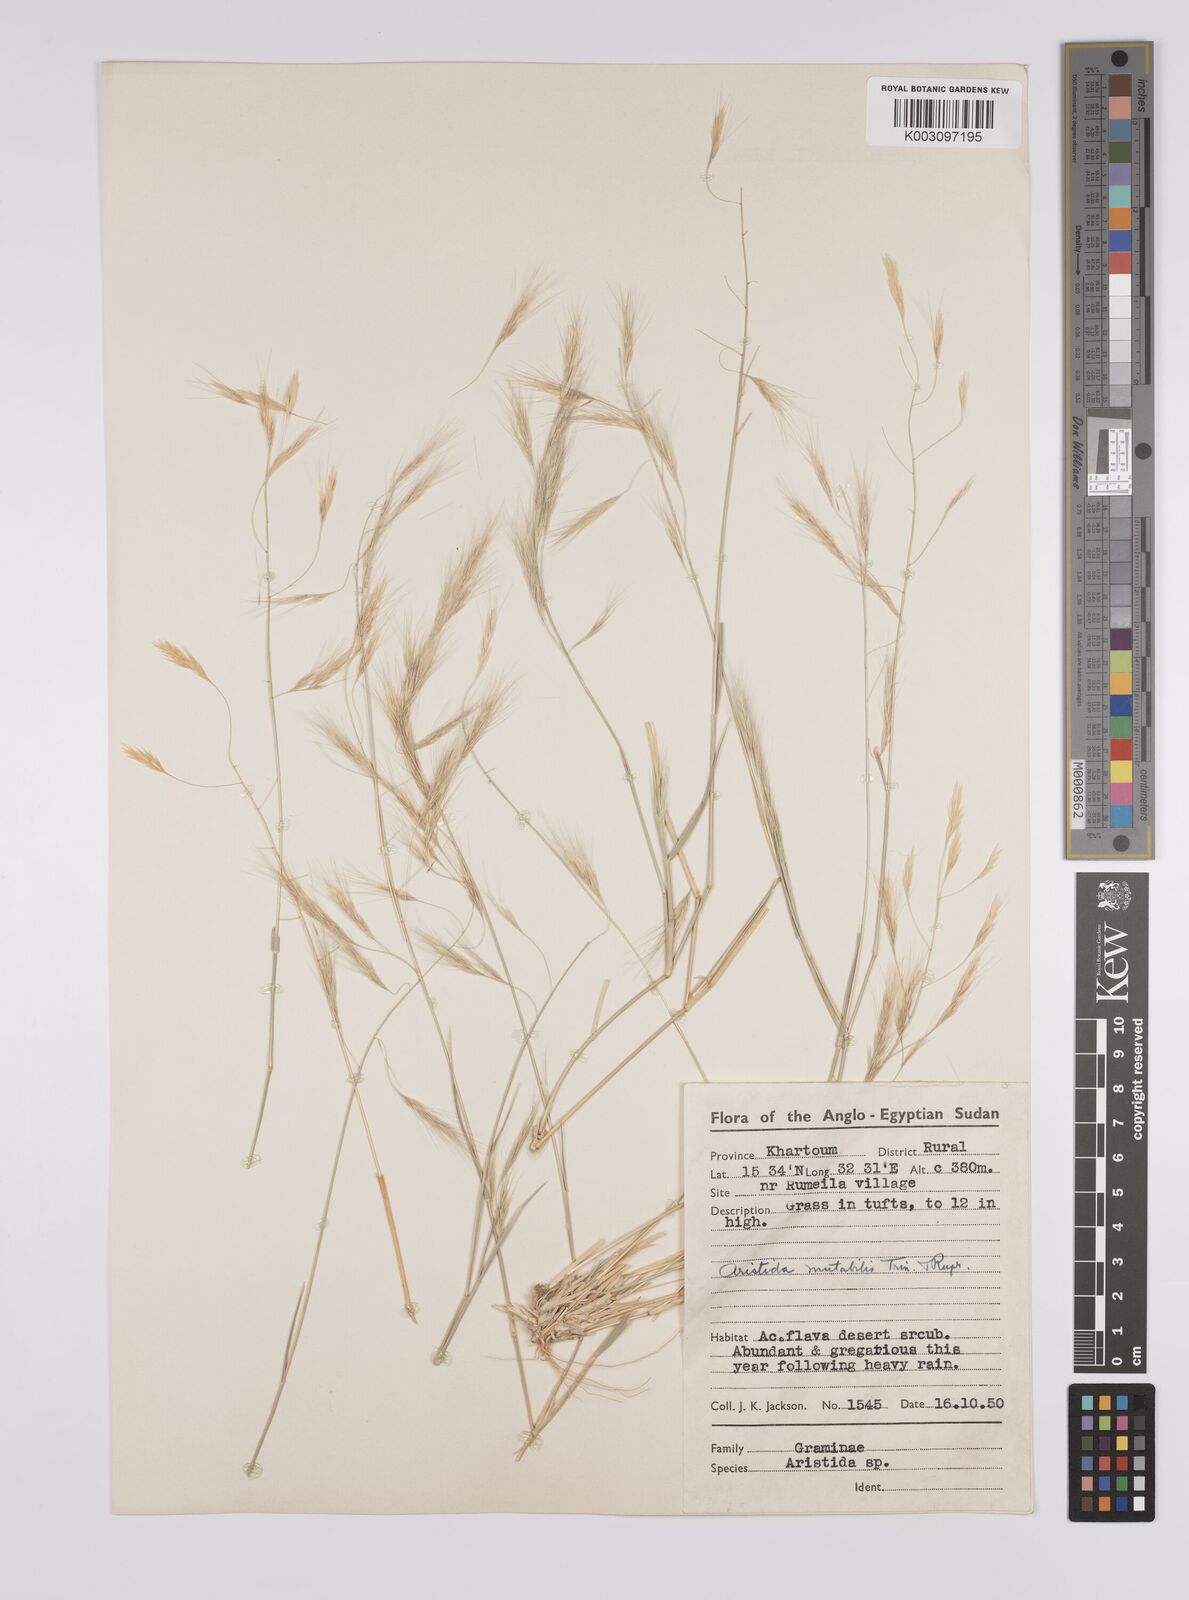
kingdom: Plantae
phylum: Tracheophyta
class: Liliopsida
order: Poales
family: Poaceae
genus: Aristida
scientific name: Aristida mutabilis
